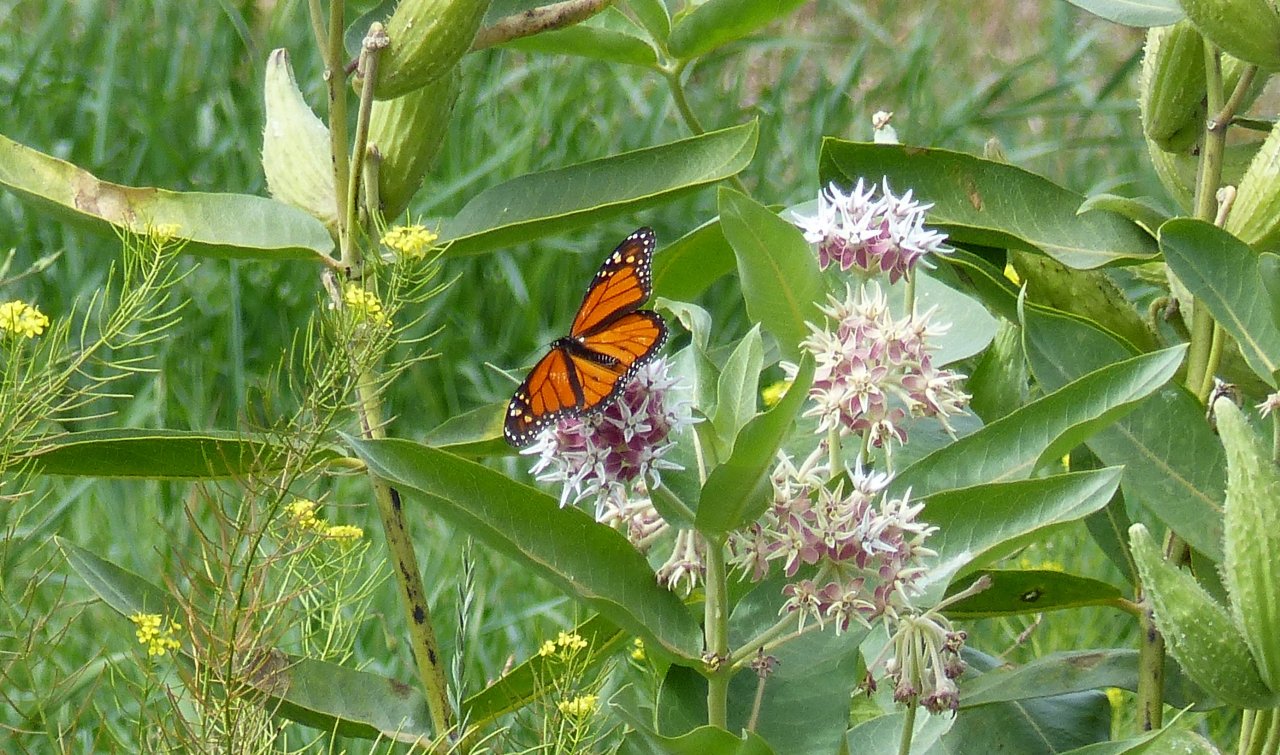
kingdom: Animalia
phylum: Arthropoda
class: Insecta
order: Lepidoptera
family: Nymphalidae
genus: Danaus
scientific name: Danaus plexippus
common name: Monarch
